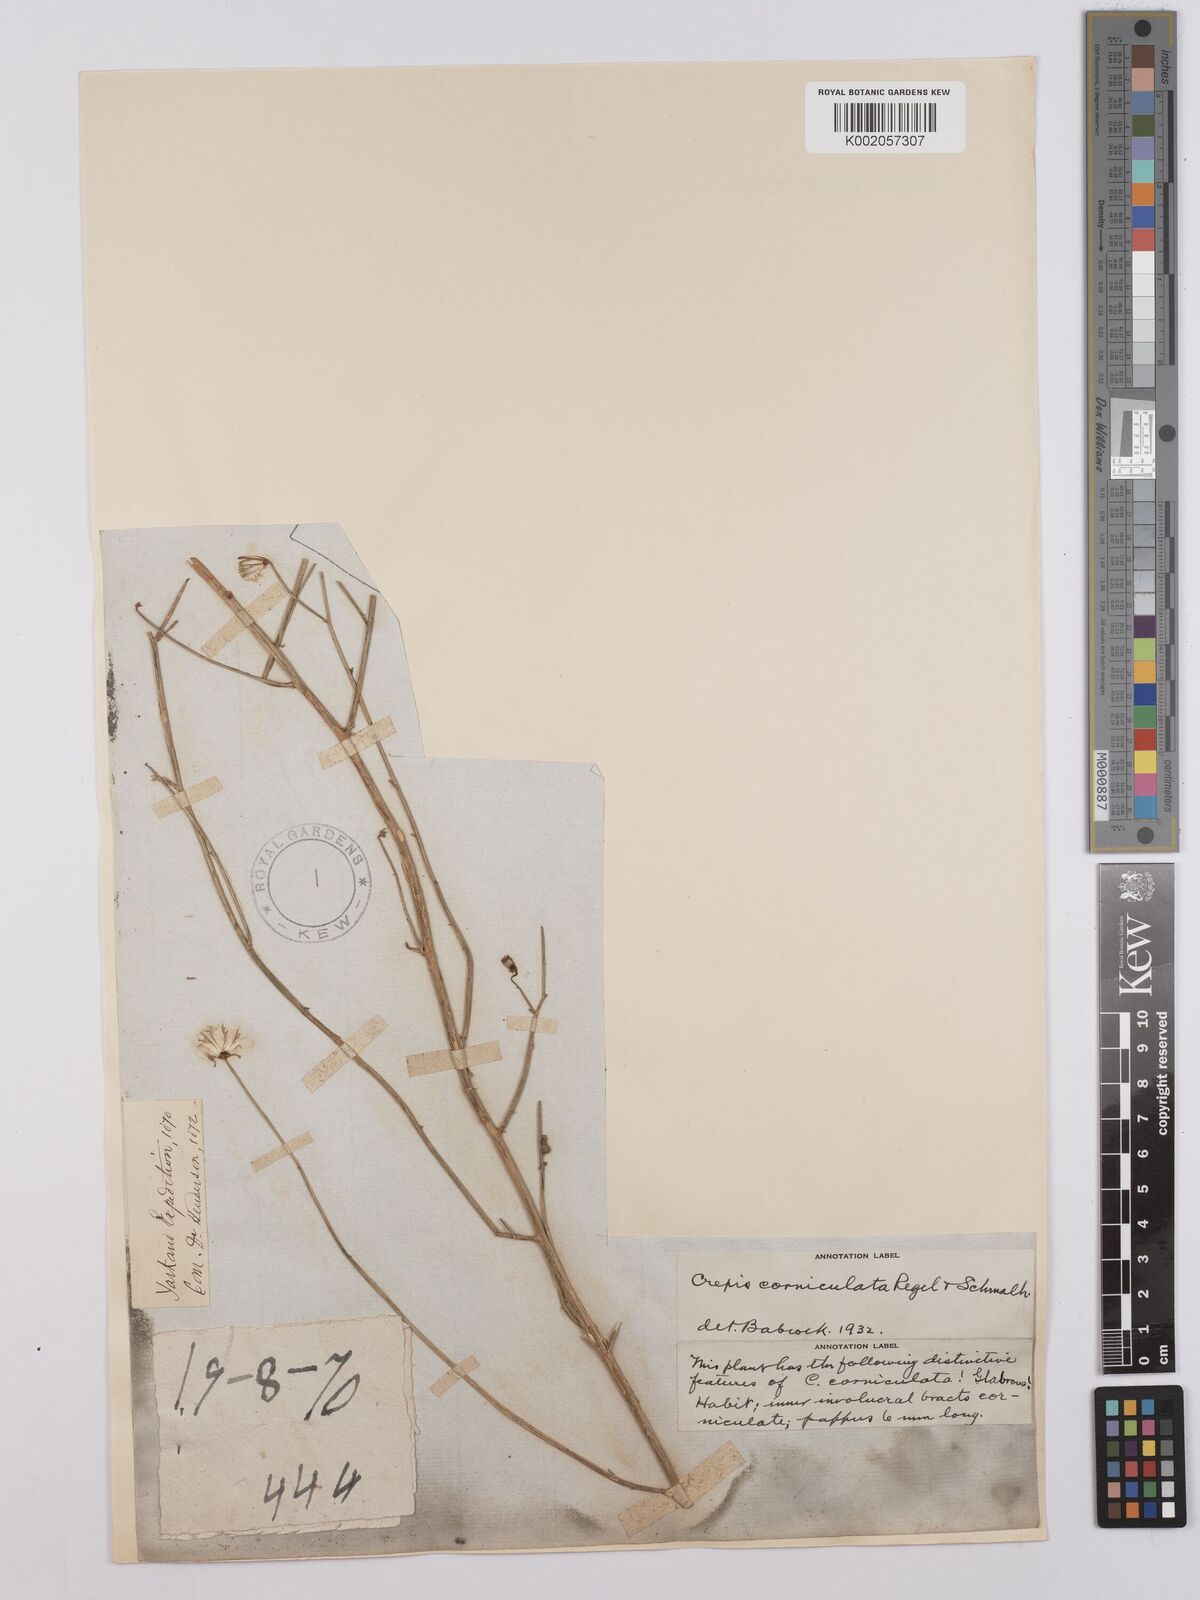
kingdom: Plantae
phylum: Tracheophyta
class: Magnoliopsida
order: Asterales
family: Asteraceae
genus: Youngia
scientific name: Youngia corniculata
